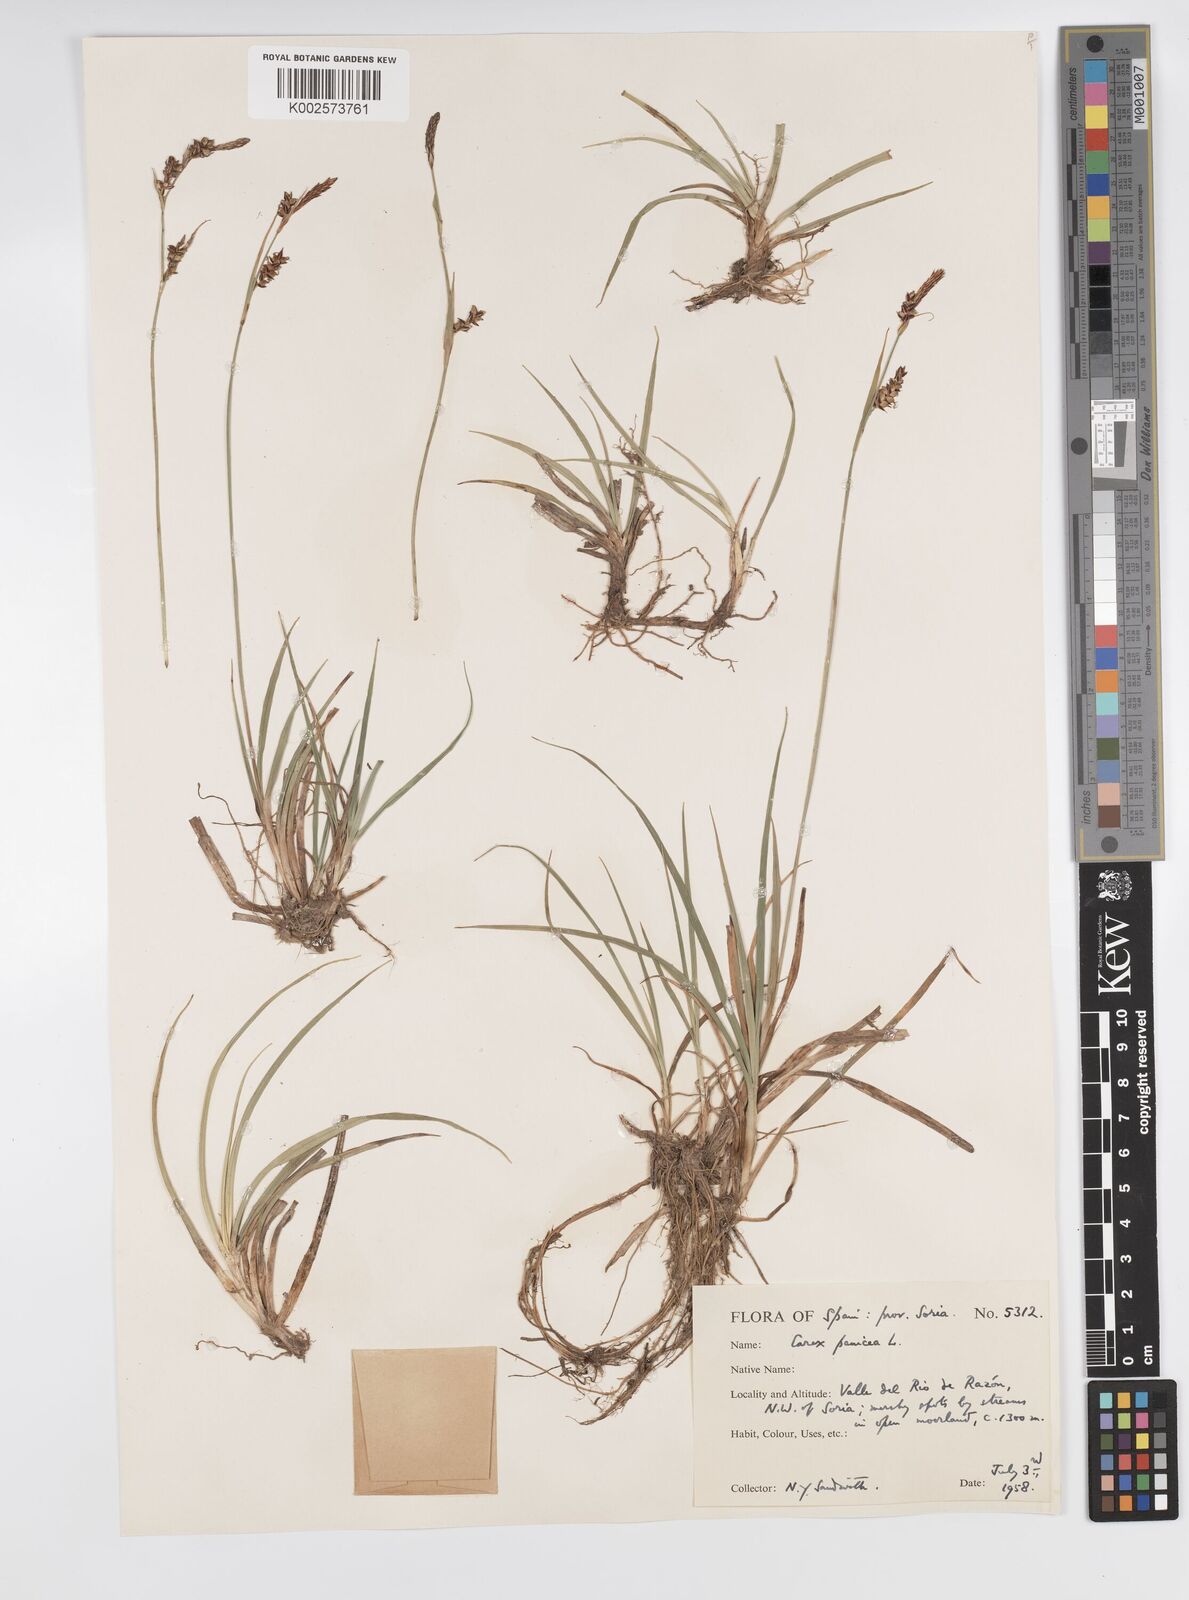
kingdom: Plantae
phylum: Tracheophyta
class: Liliopsida
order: Poales
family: Cyperaceae
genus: Carex
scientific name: Carex panicea
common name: Carnation sedge
